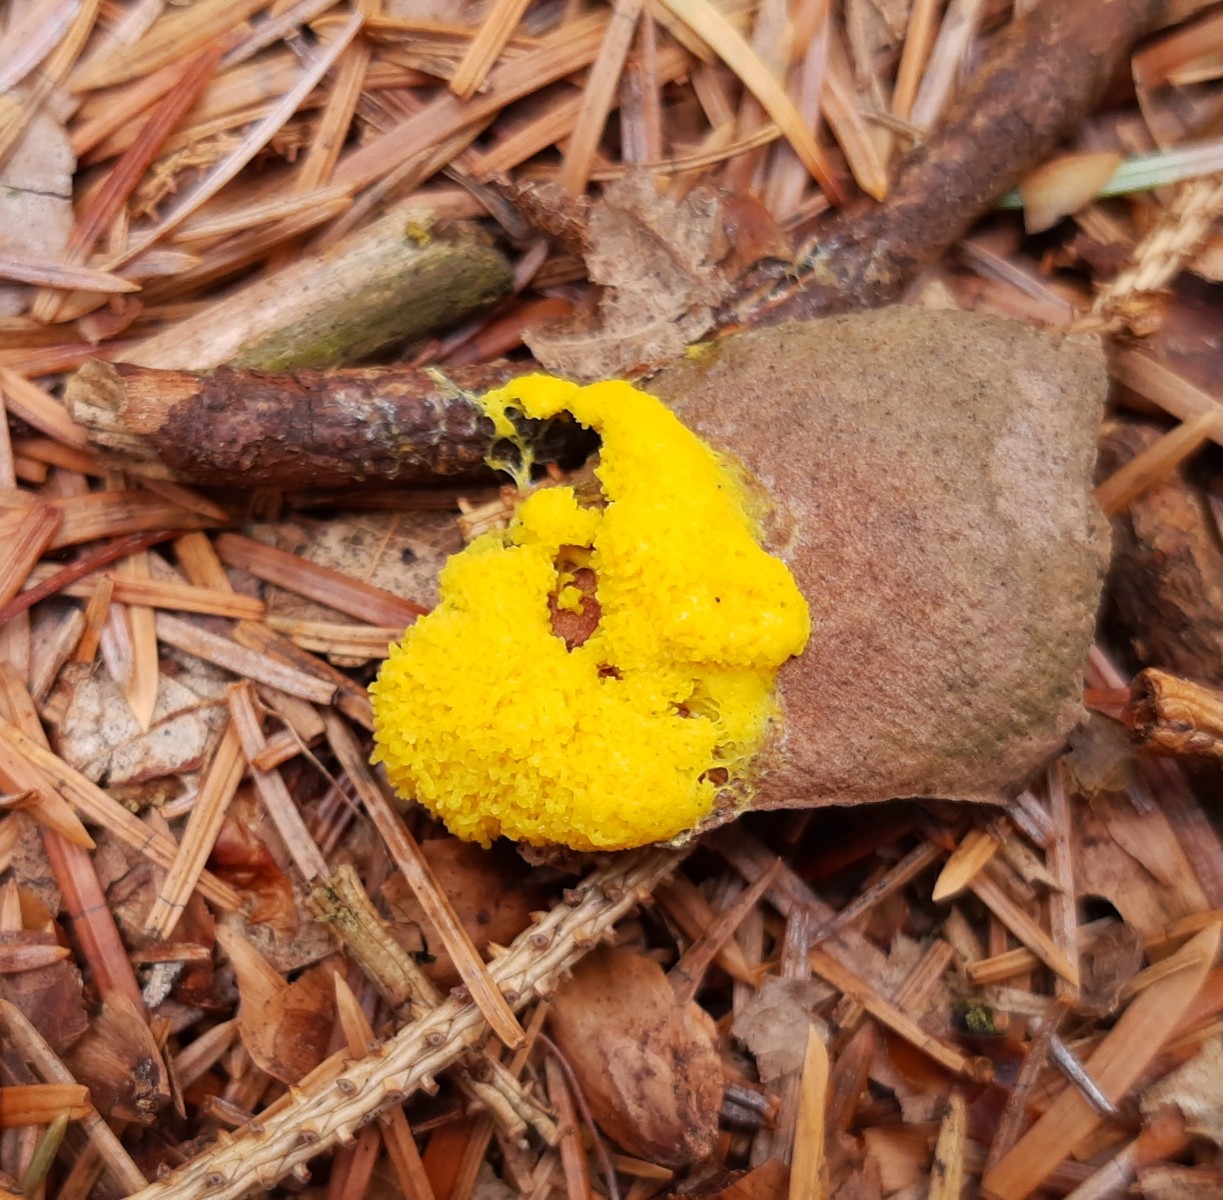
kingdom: Protozoa
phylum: Mycetozoa
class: Myxomycetes
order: Physarales
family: Physaraceae
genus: Fuligo
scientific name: Fuligo septica
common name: gul troldsmør
